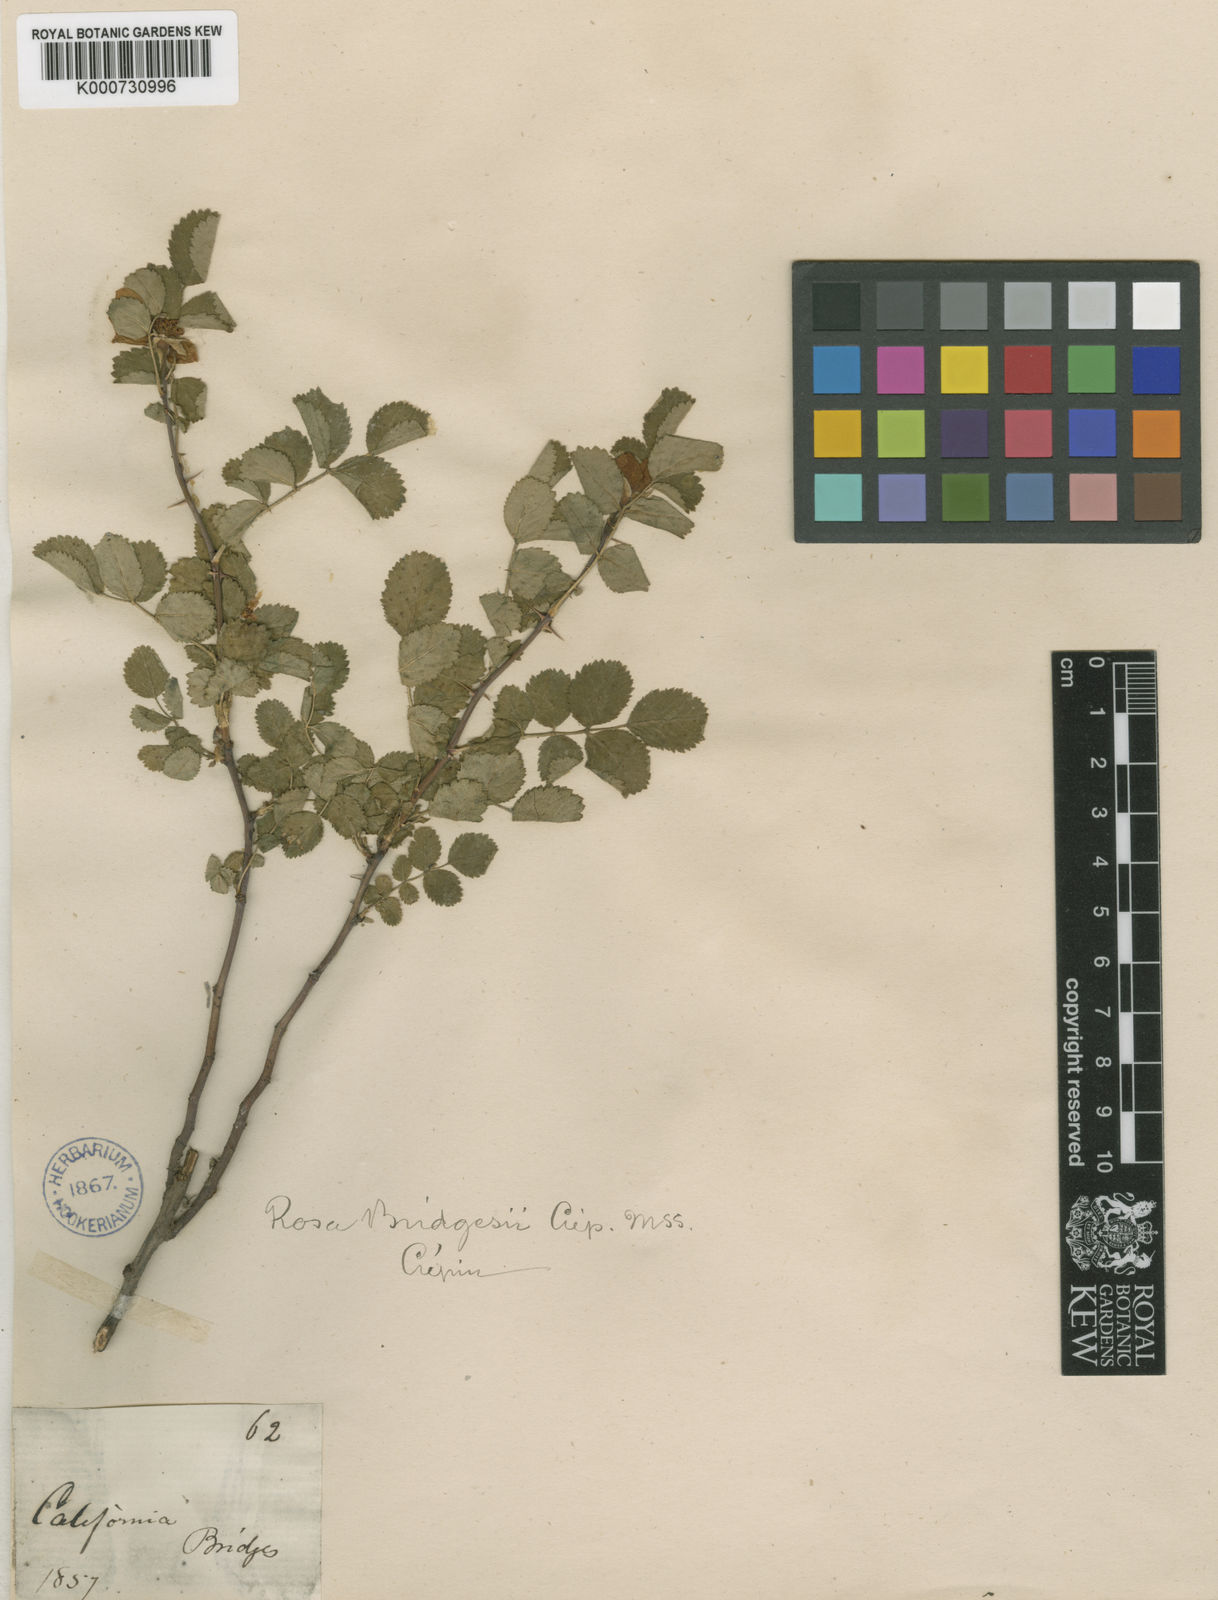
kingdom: Plantae
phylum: Tracheophyta
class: Magnoliopsida
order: Rosales
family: Rosaceae
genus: Rosa
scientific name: Rosa
